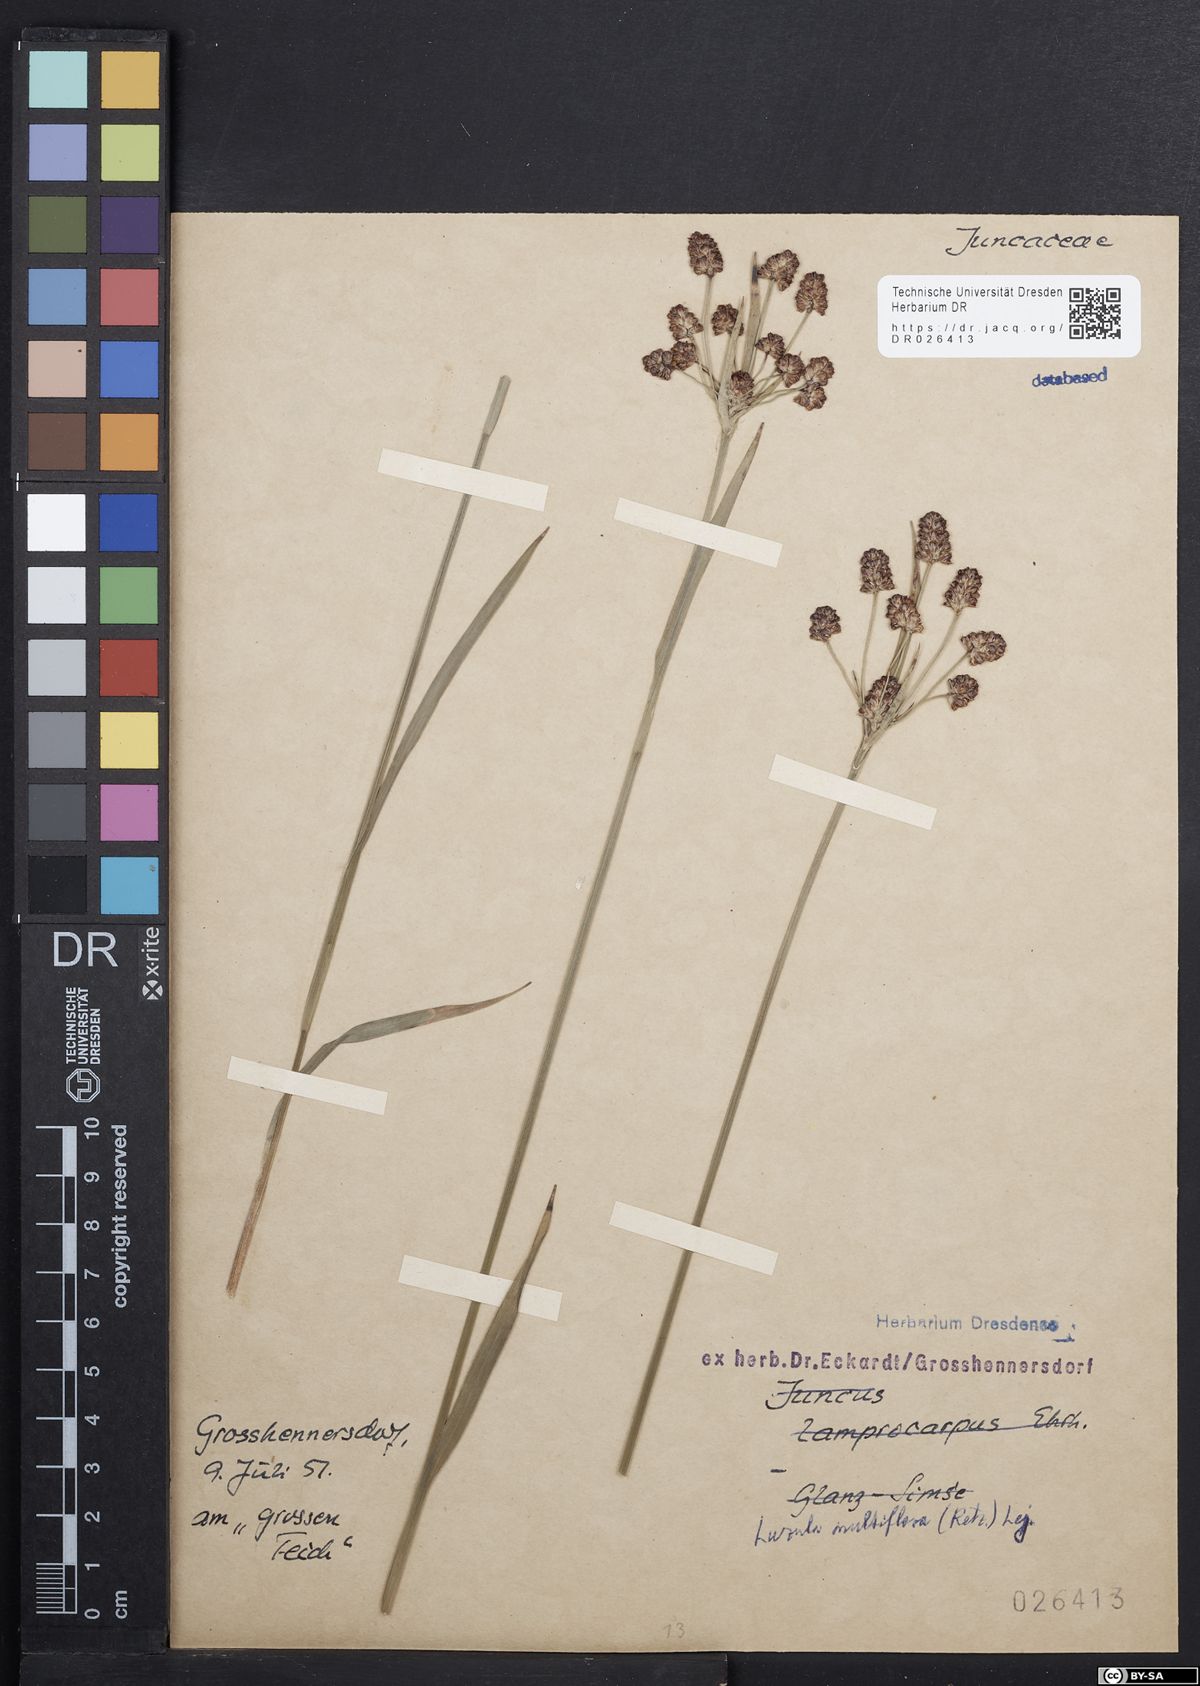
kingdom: Plantae
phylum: Tracheophyta
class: Liliopsida
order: Poales
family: Juncaceae
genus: Luzula
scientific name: Luzula multiflora
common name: Heath wood-rush
